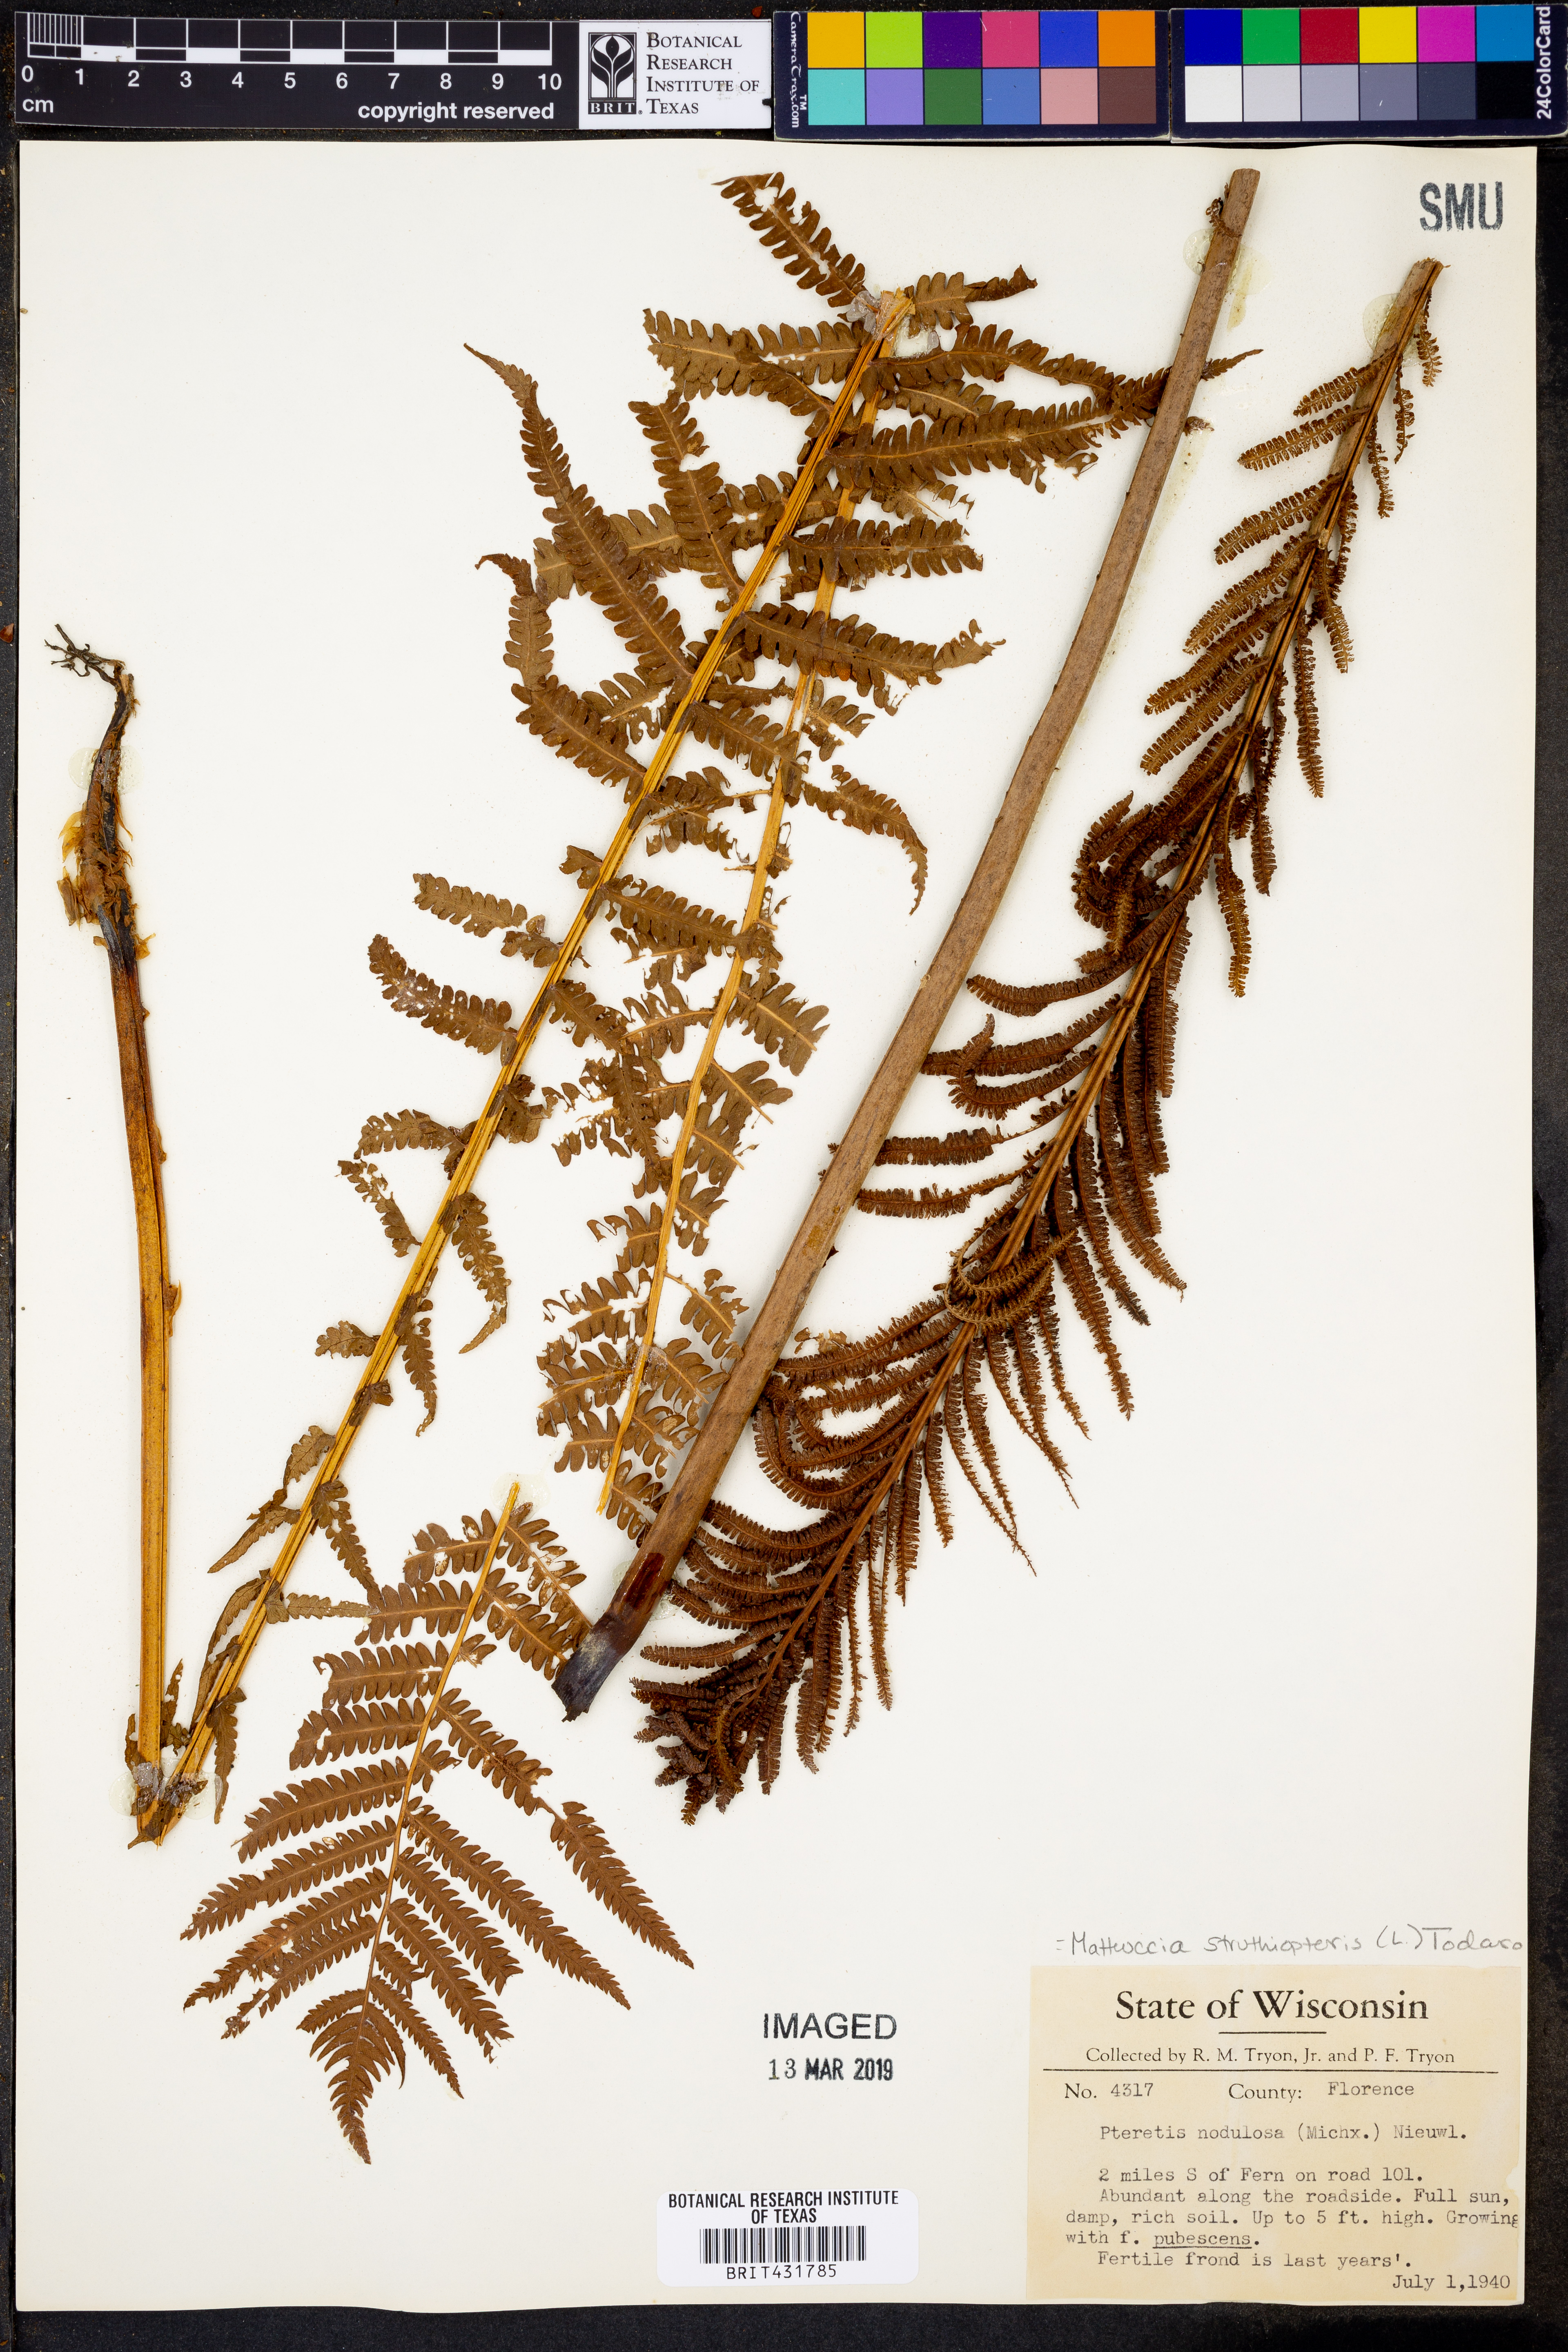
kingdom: Plantae
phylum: Tracheophyta
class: Polypodiopsida
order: Polypodiales
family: Onocleaceae
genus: Matteuccia
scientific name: Matteuccia struthiopteris
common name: Ostrich fern
